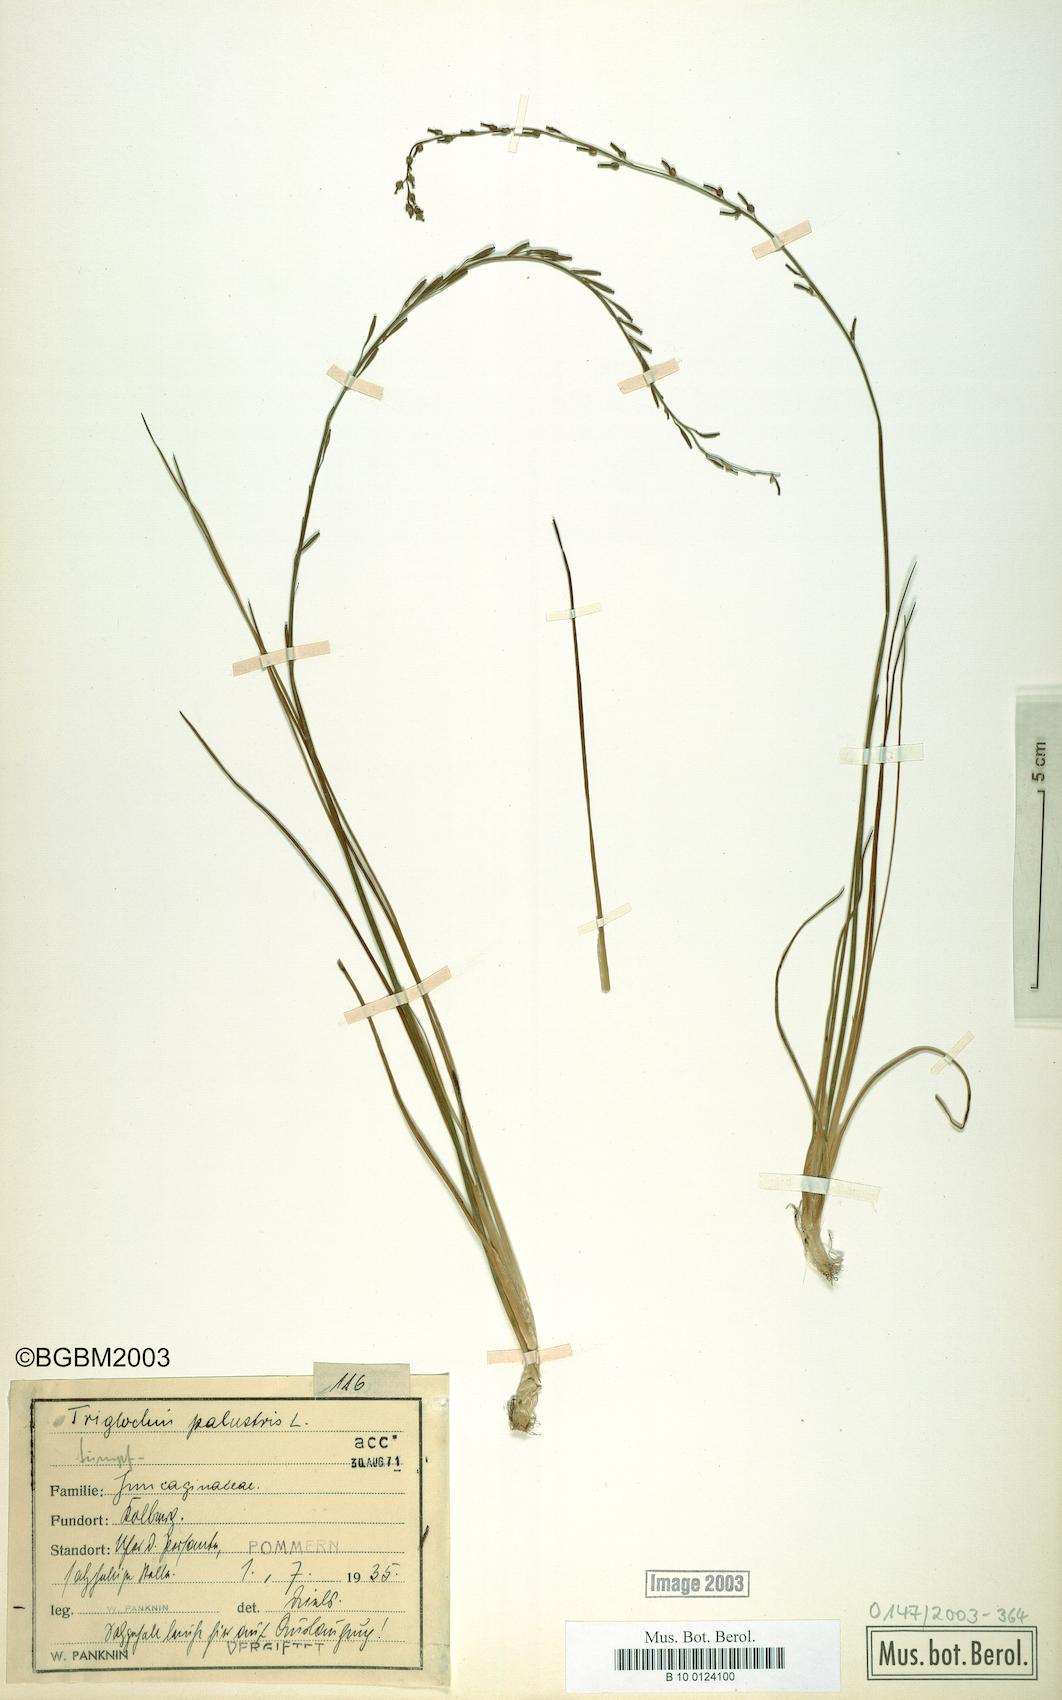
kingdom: Plantae
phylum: Tracheophyta
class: Liliopsida
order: Alismatales
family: Juncaginaceae
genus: Triglochin
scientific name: Triglochin palustris
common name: Marsh arrowgrass
